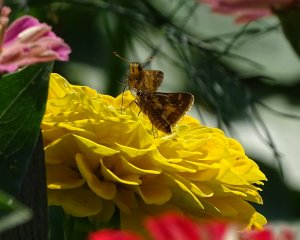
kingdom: Animalia
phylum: Arthropoda
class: Insecta
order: Lepidoptera
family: Hesperiidae
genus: Polites
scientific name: Polites coras
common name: Peck's Skipper
